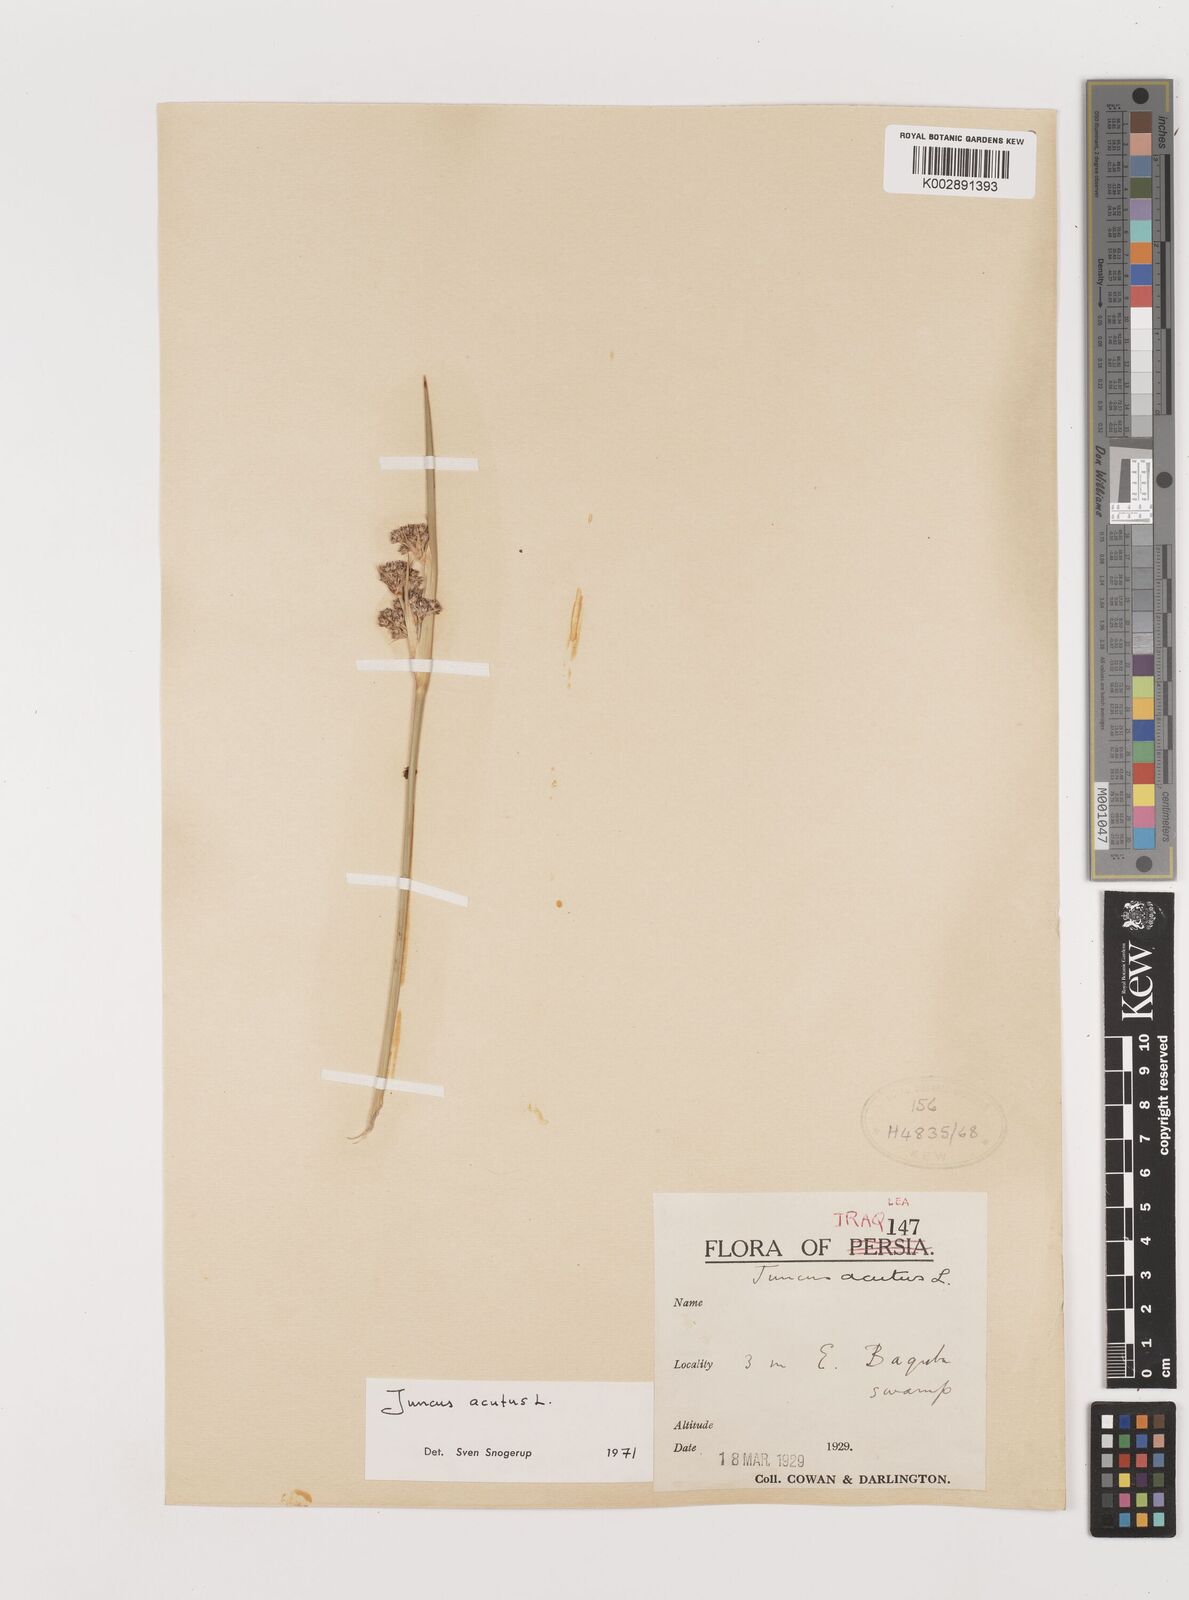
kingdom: Plantae
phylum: Tracheophyta
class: Liliopsida
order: Poales
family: Juncaceae
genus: Juncus
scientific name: Juncus acutus
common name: Sharp rush
